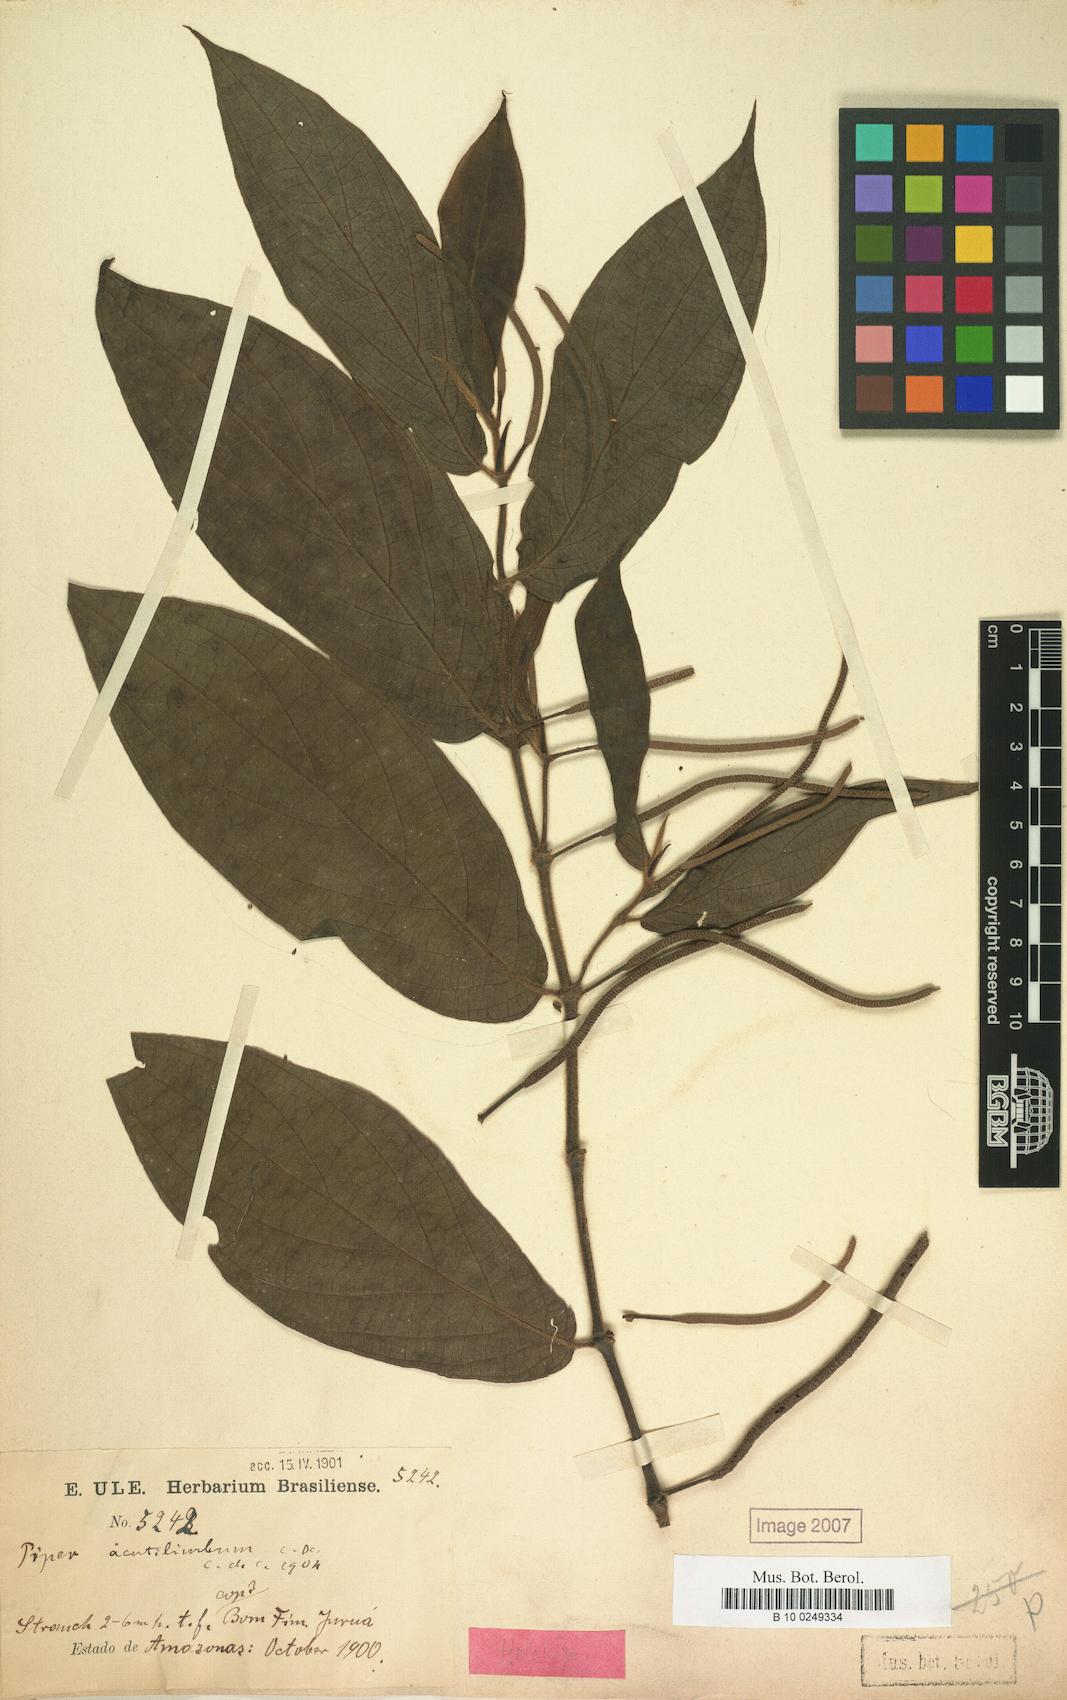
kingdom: Plantae
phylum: Tracheophyta
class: Magnoliopsida
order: Piperales
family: Piperaceae
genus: Piper
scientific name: Piper acutilimbum
